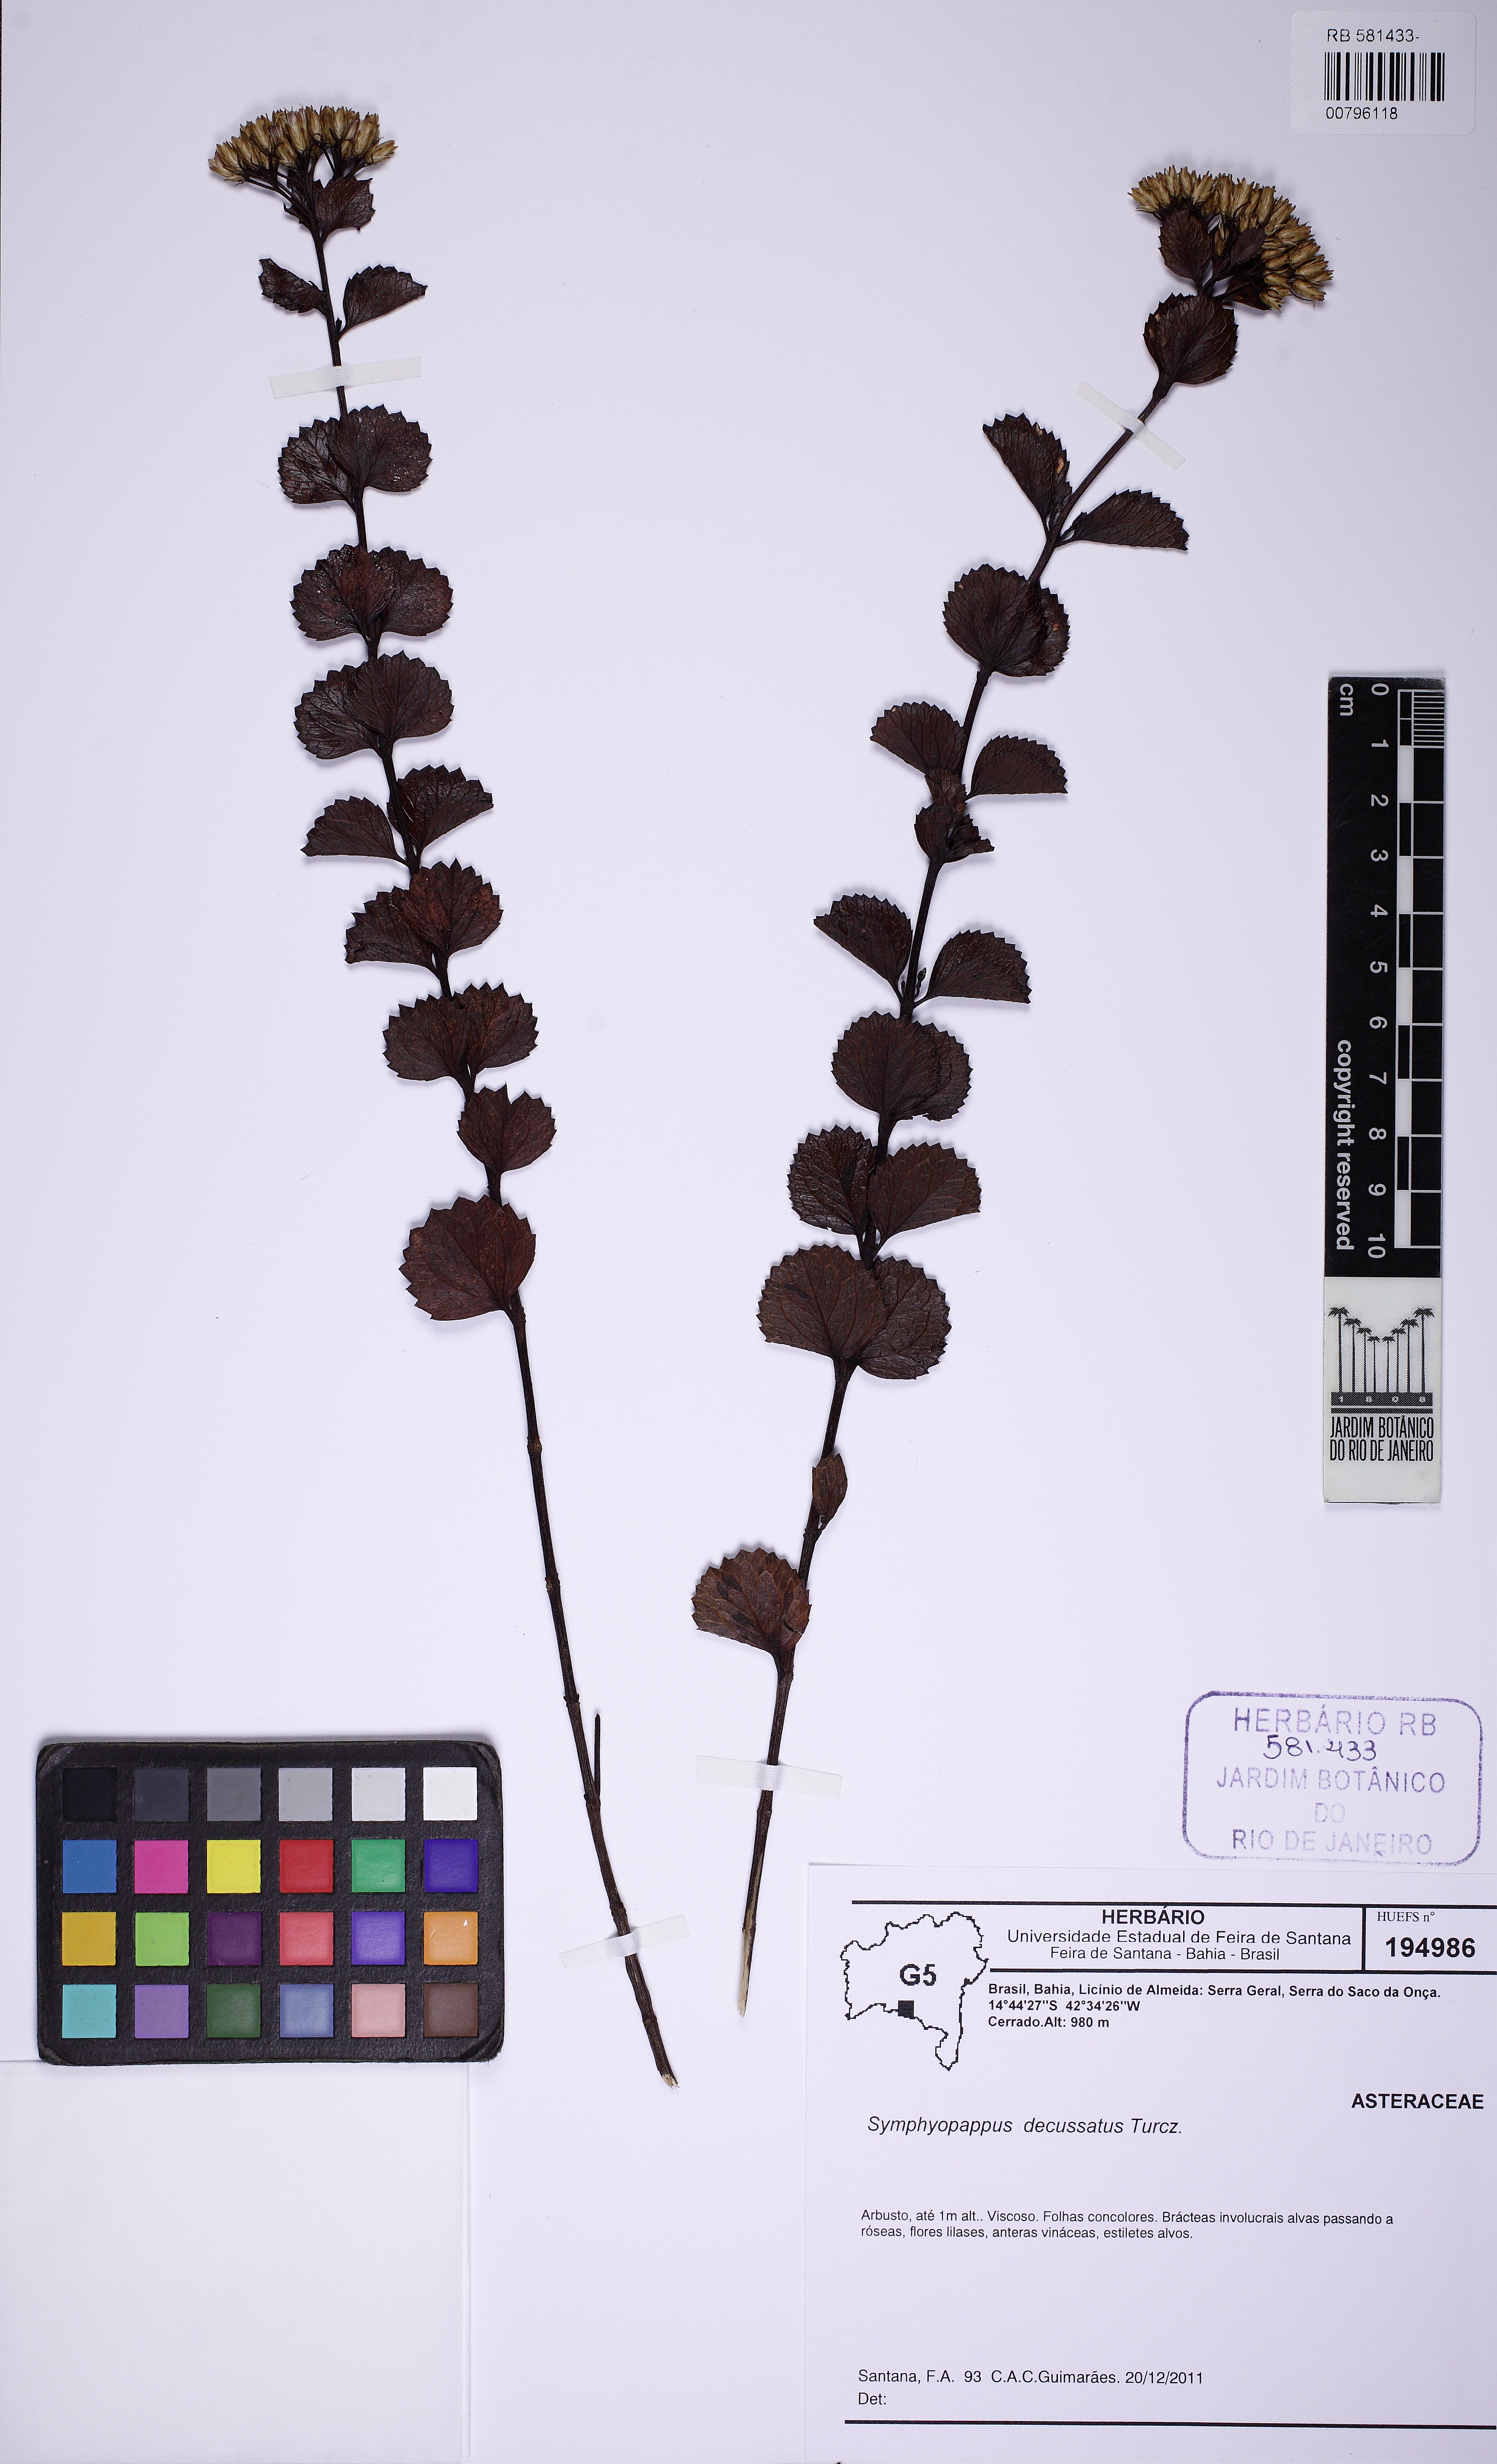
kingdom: Plantae
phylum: Tracheophyta
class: Magnoliopsida
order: Asterales
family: Asteraceae
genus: Symphyopappus
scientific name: Symphyopappus decussatus
